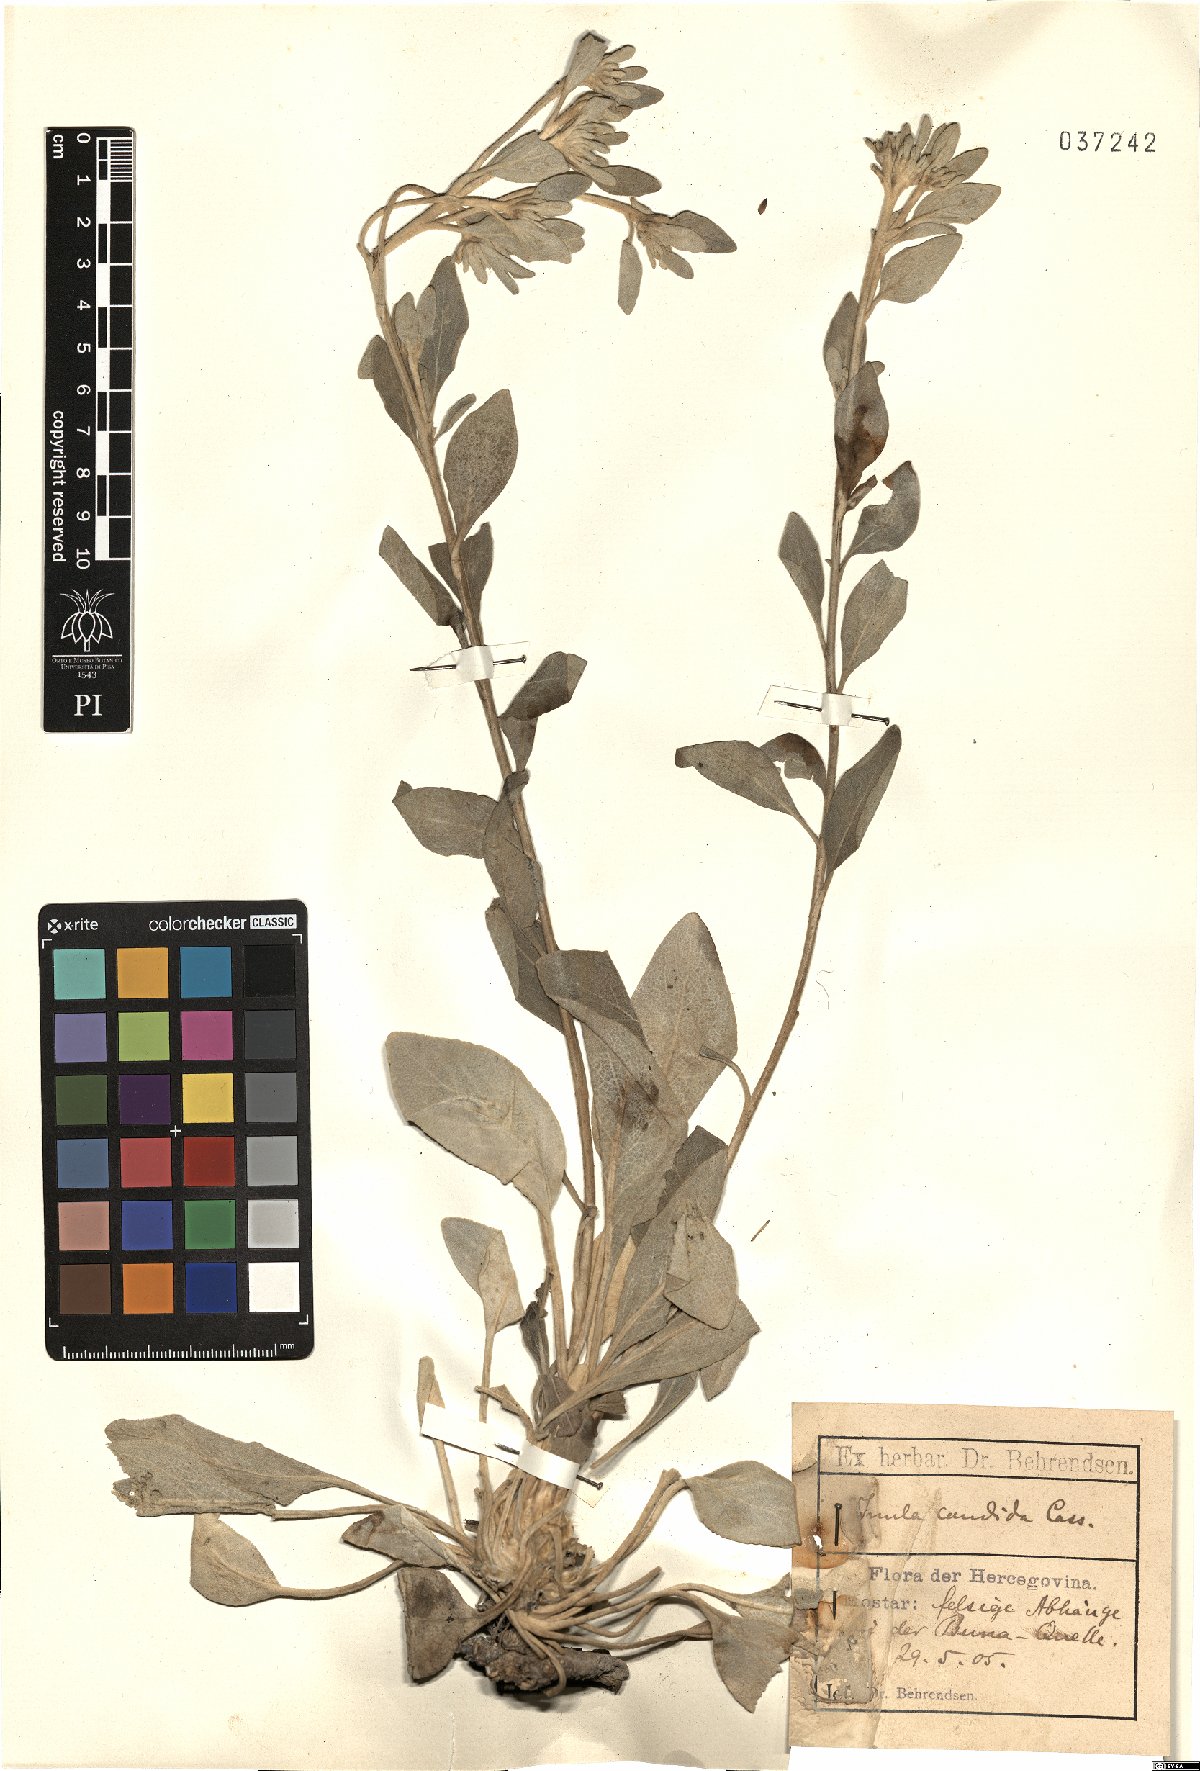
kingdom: Plantae
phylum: Tracheophyta
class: Magnoliopsida
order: Asterales
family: Asteraceae
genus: Inula
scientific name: Inula candida
